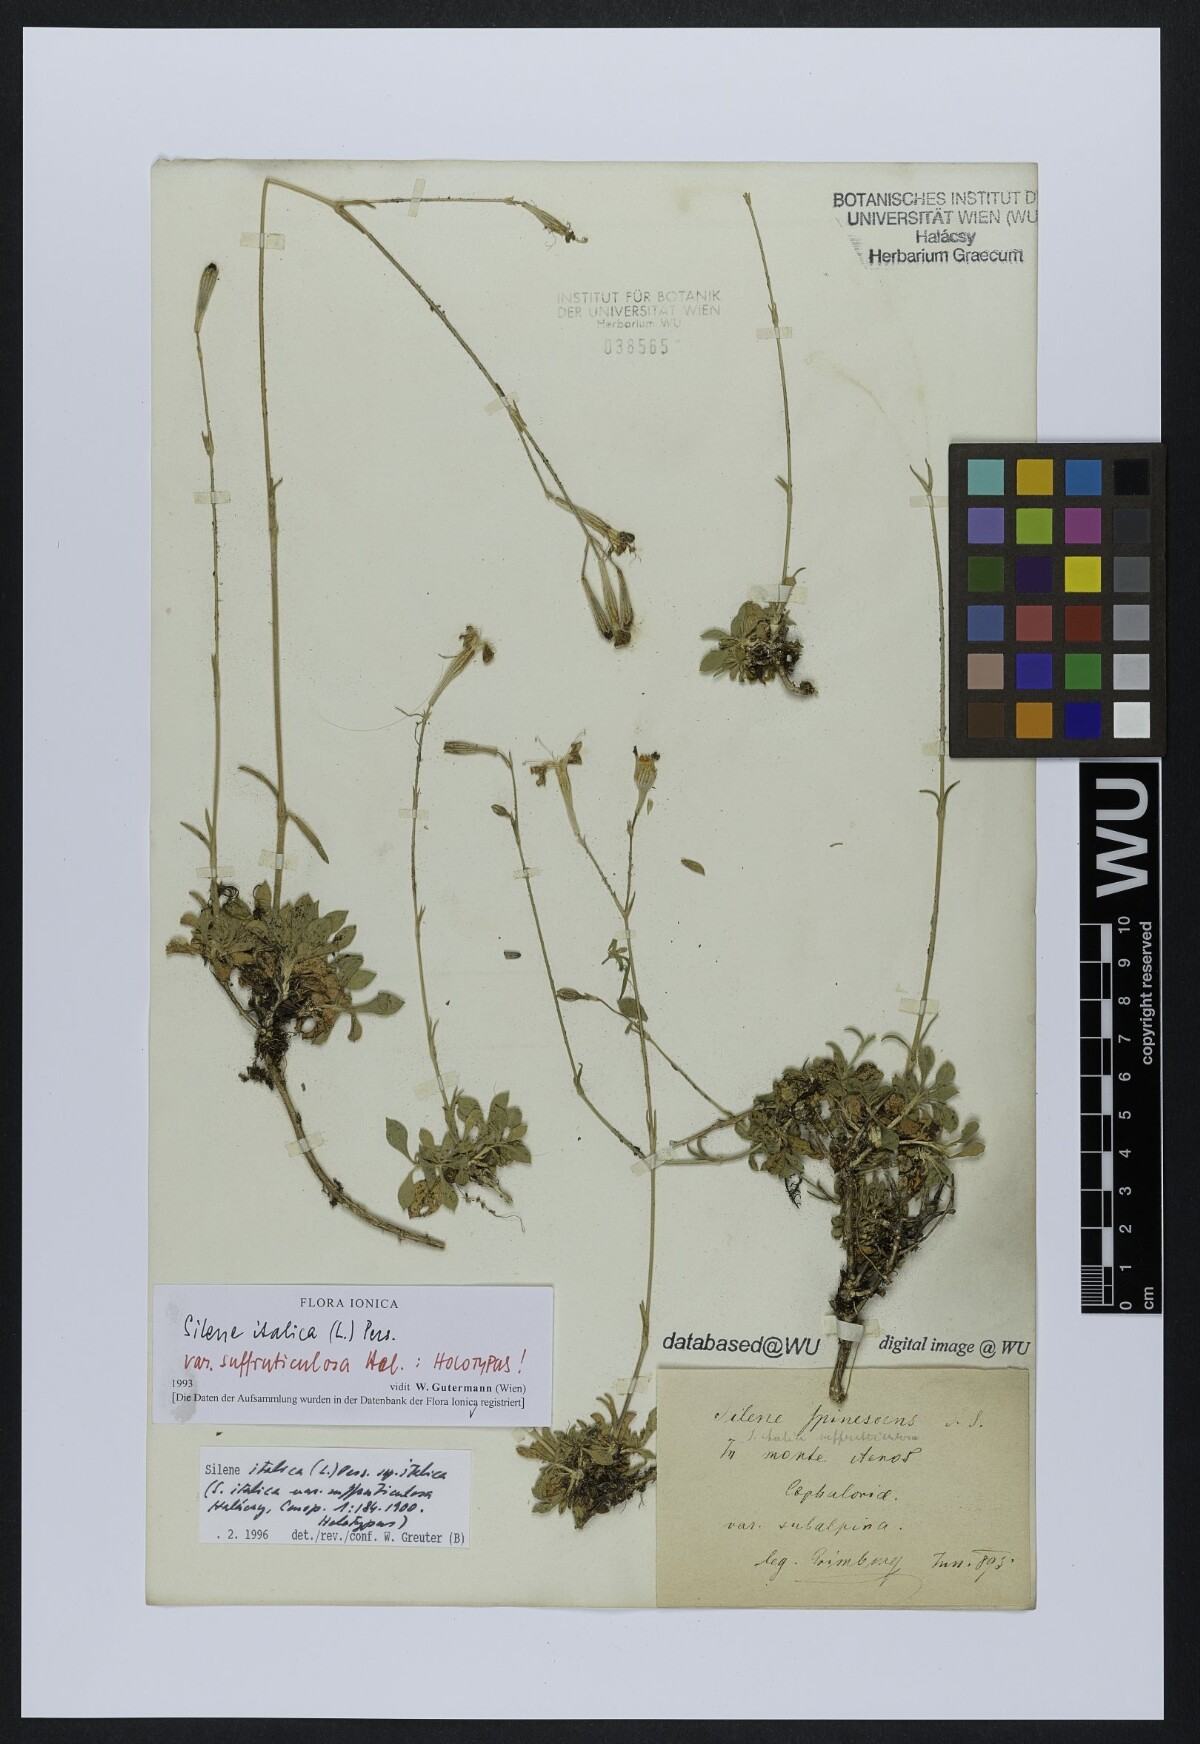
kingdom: Plantae
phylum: Tracheophyta
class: Magnoliopsida
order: Caryophyllales
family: Caryophyllaceae
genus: Silene
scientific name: Silene italica
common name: Italian catchfly
